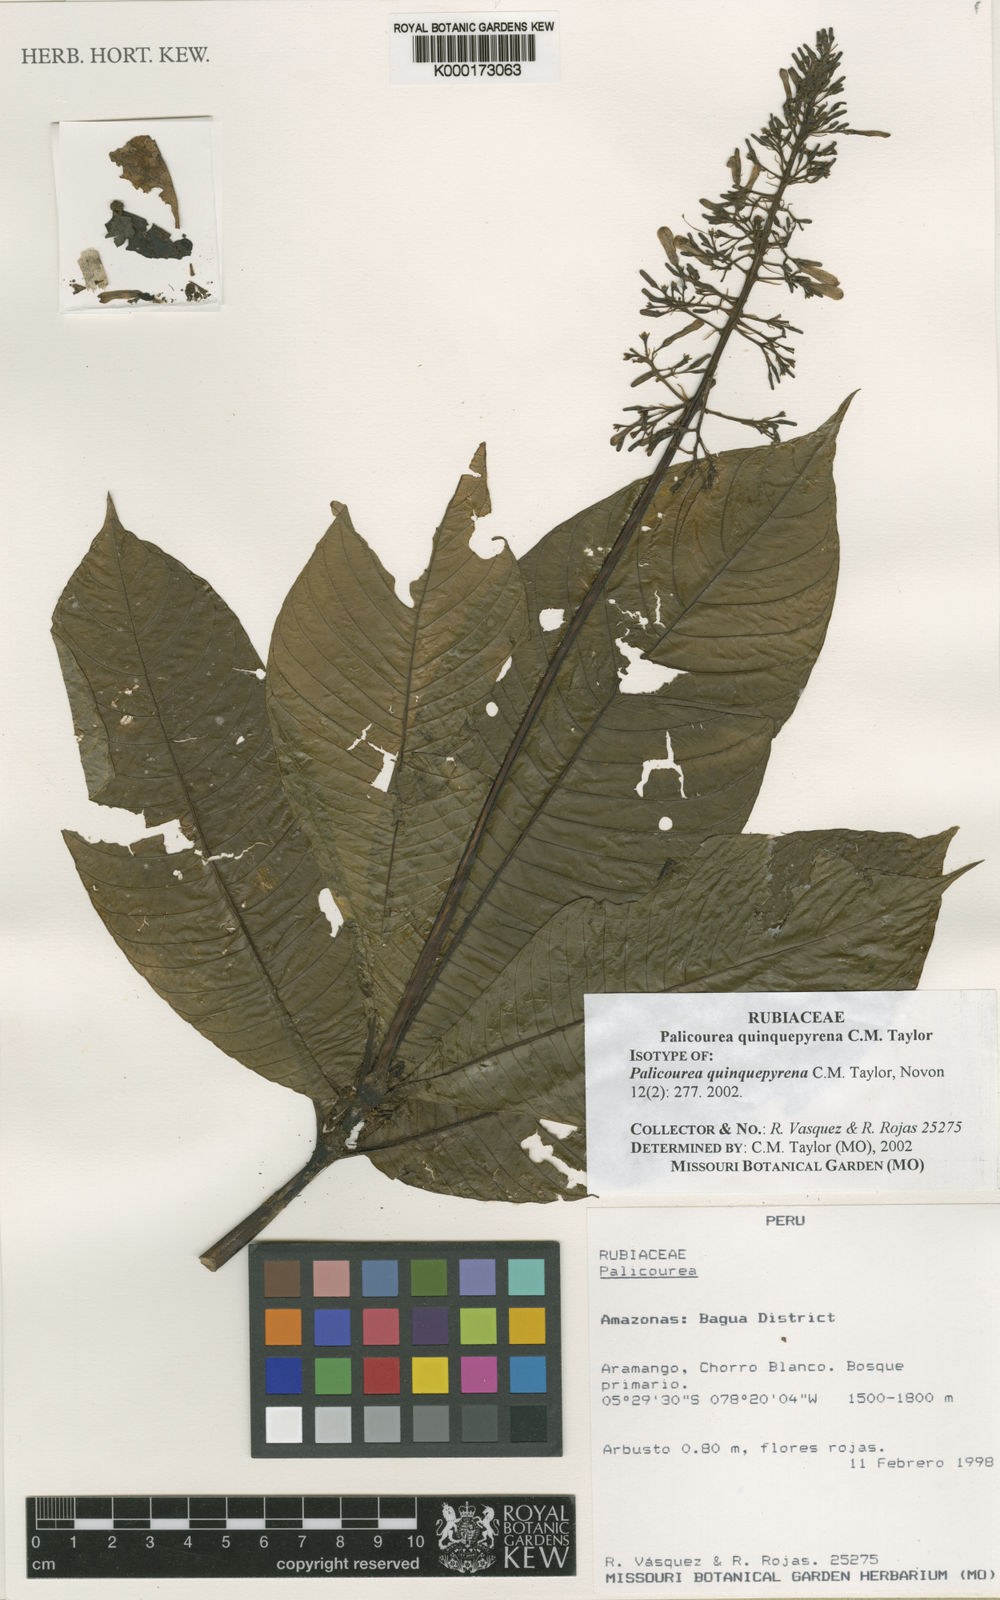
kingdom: Plantae
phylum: Tracheophyta
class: Magnoliopsida
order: Gentianales
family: Rubiaceae
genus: Palicourea
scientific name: Palicourea quinquepyrena
